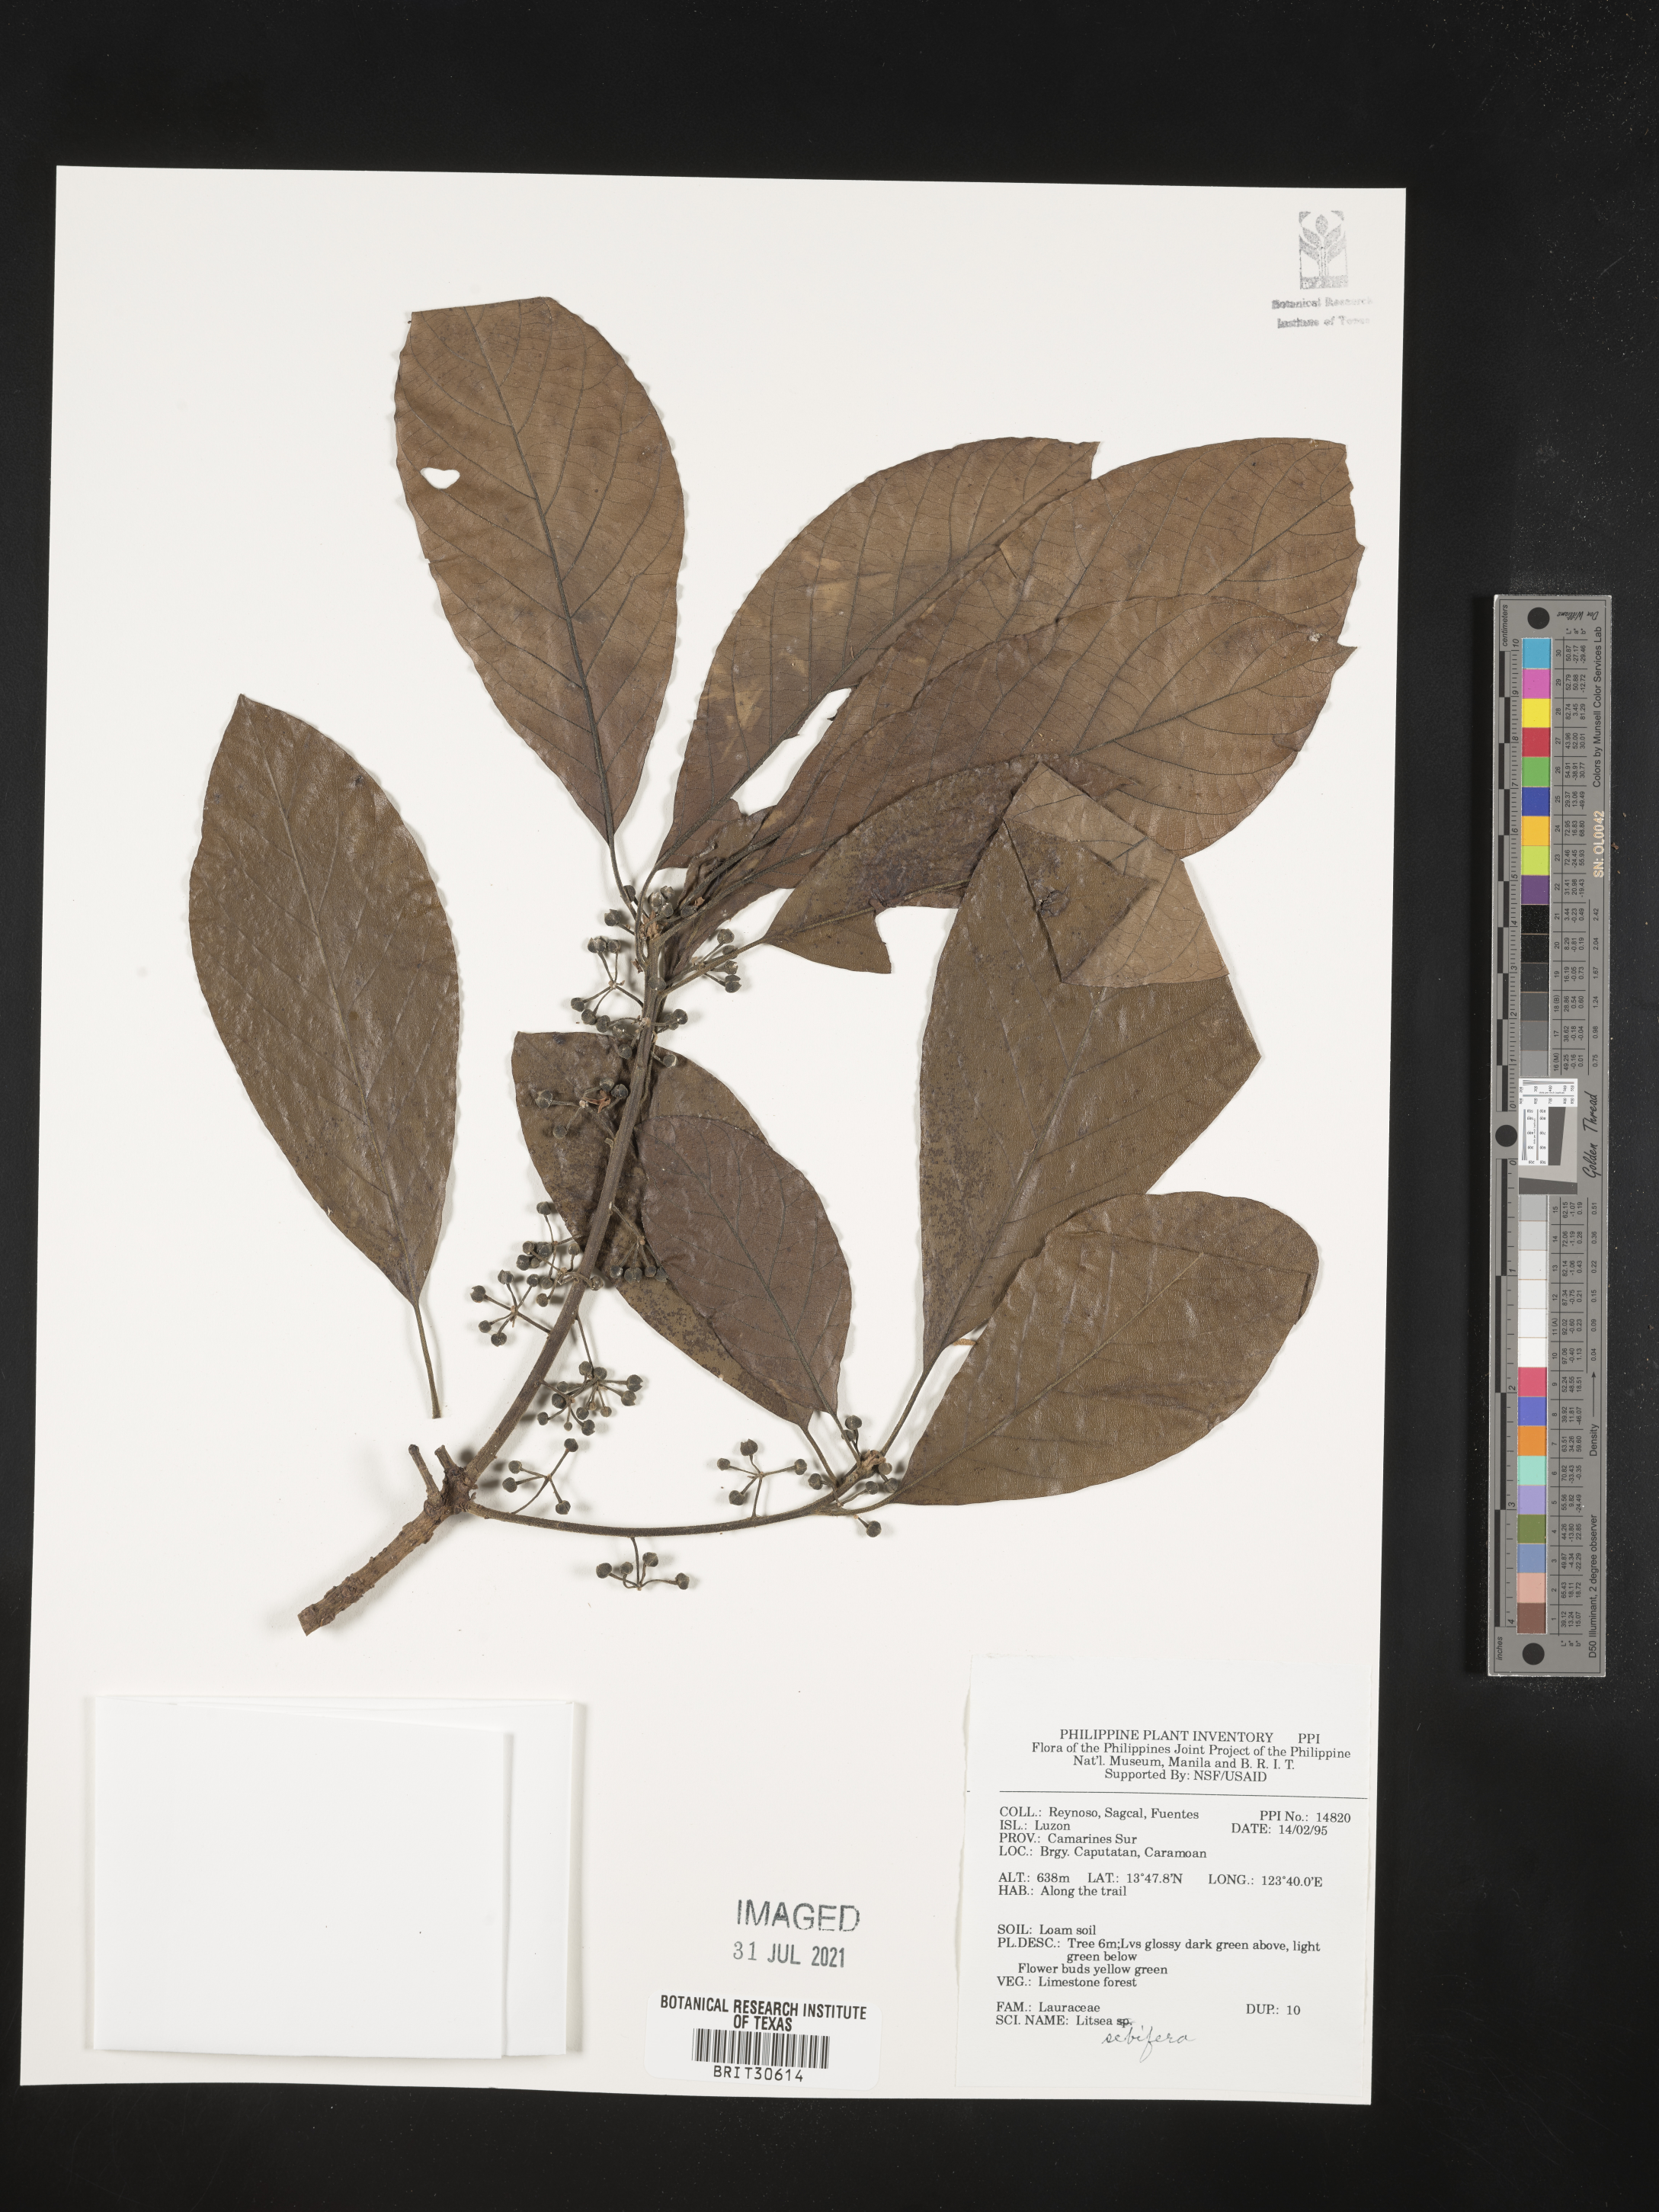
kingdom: Plantae
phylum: Tracheophyta
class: Magnoliopsida
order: Laurales
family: Lauraceae
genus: Litsea
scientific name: Litsea glutinosa
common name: Indian-laurel
